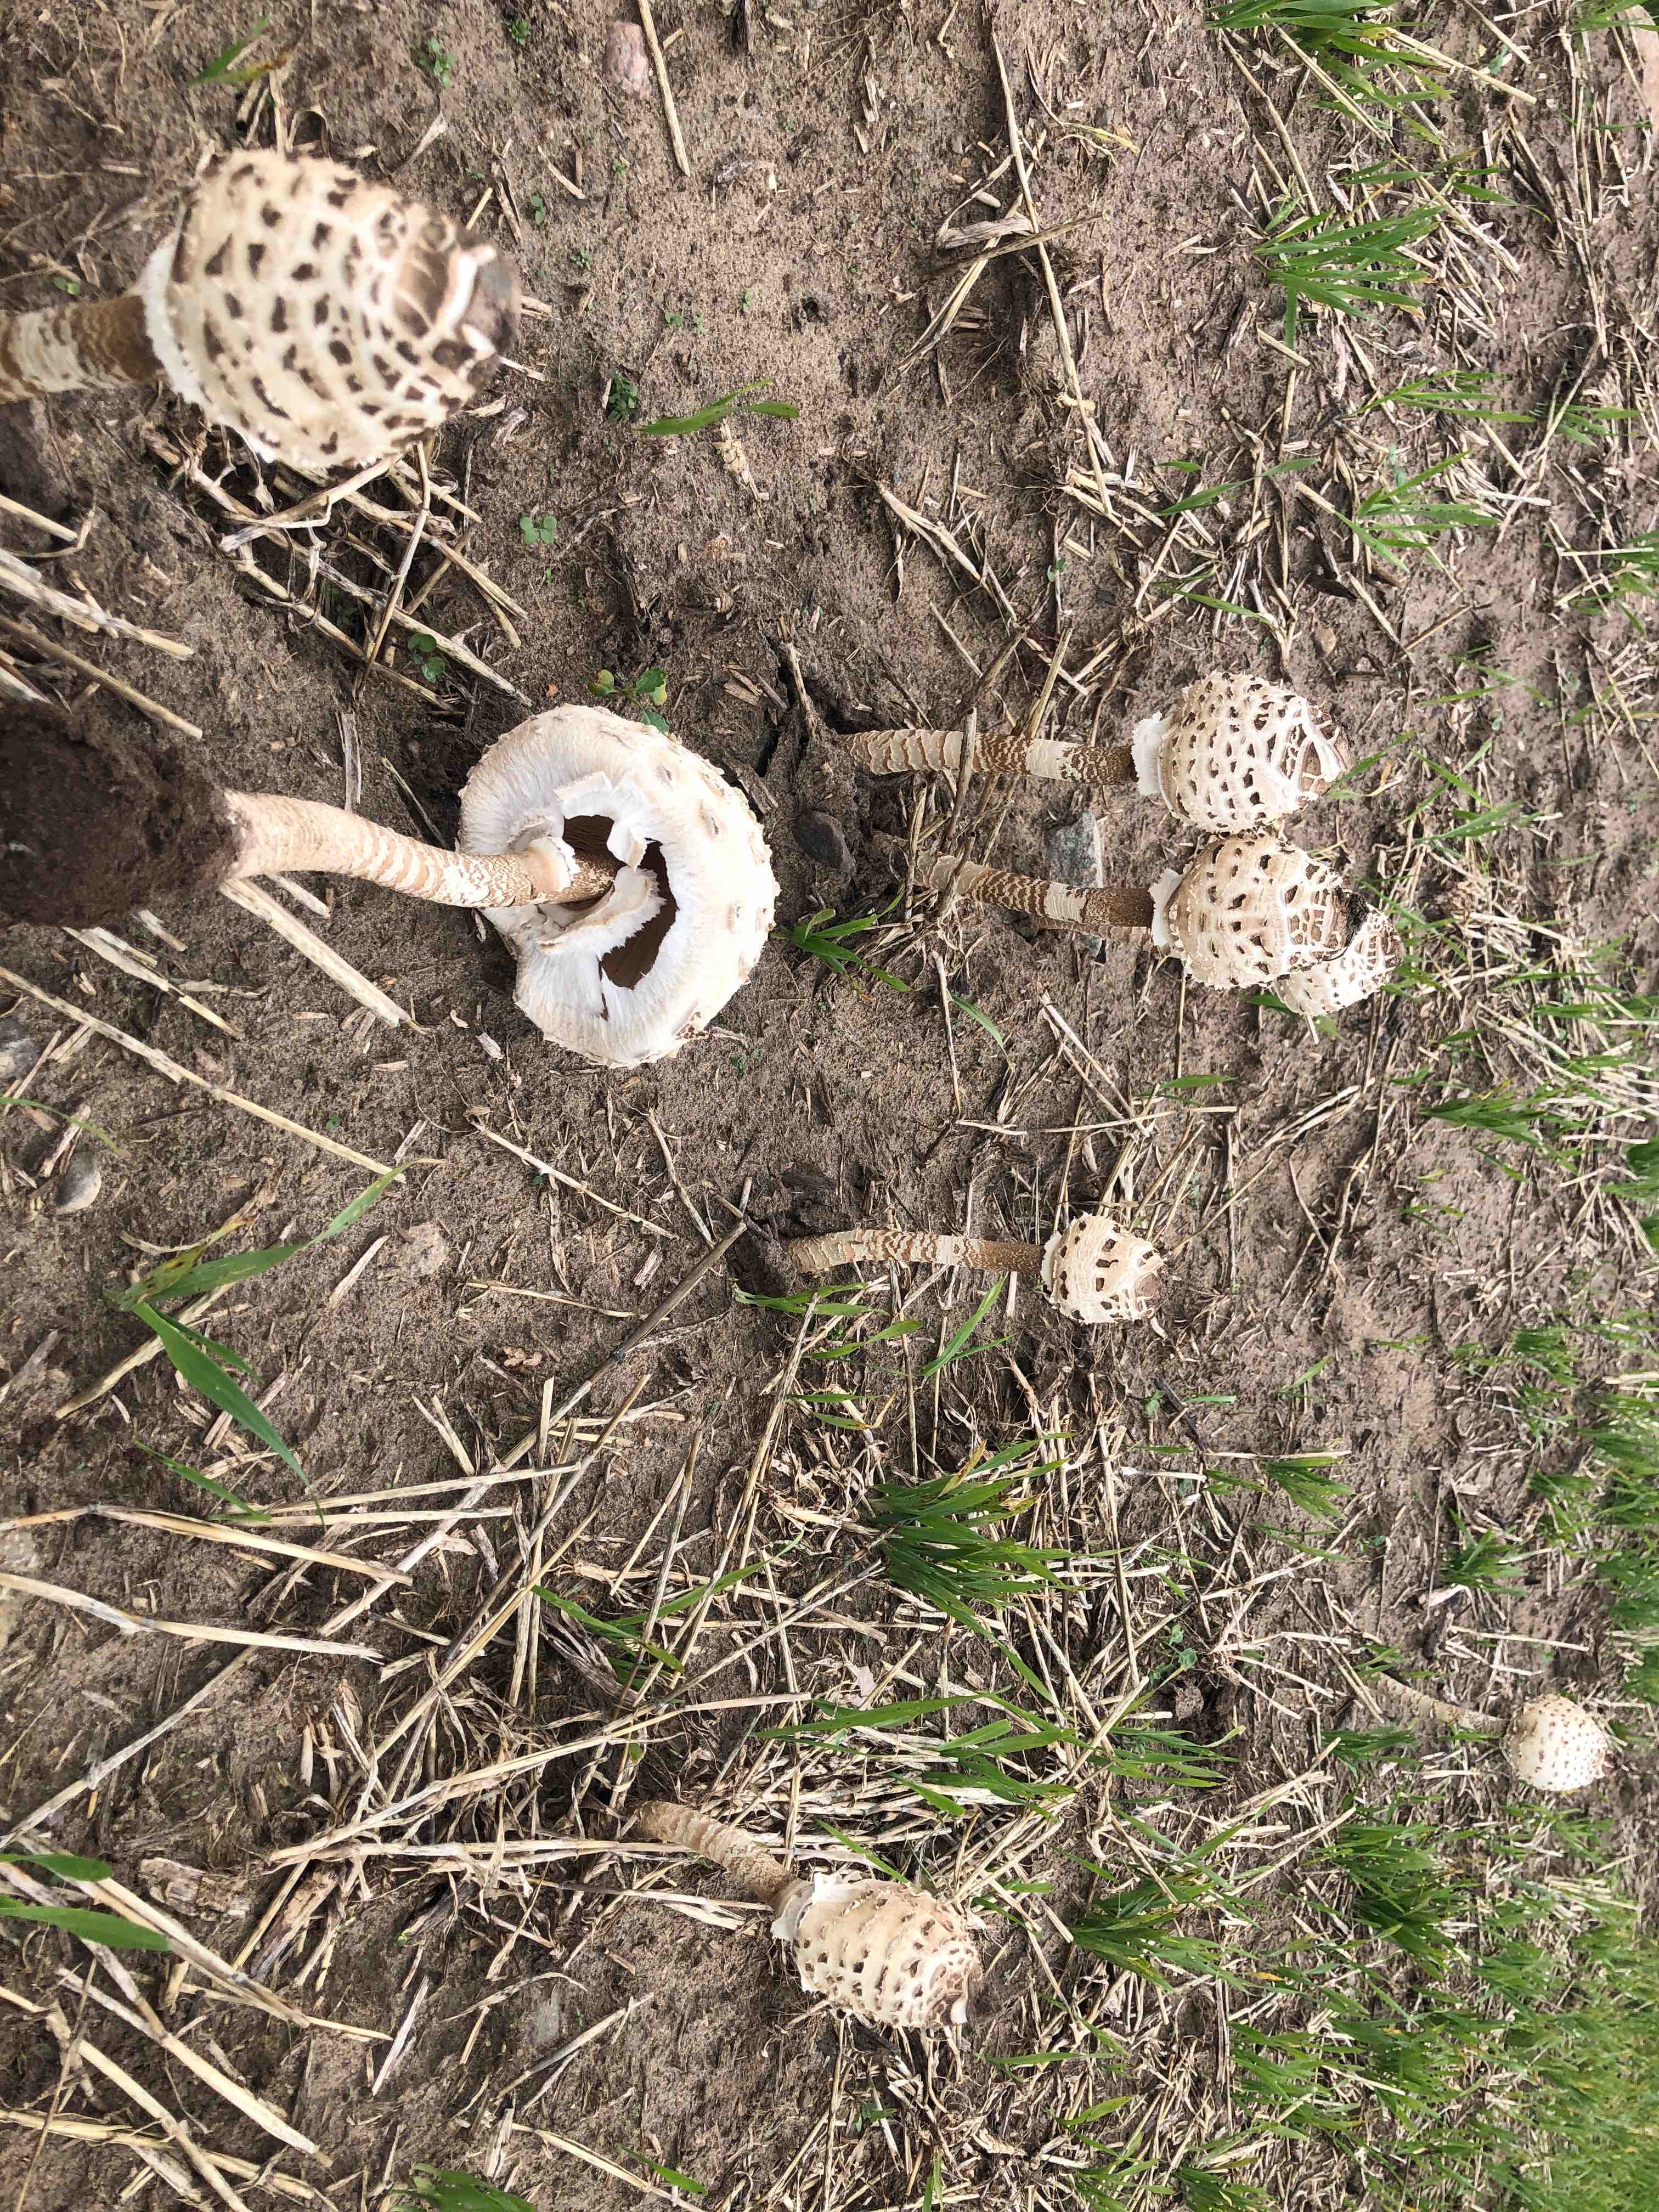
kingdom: Fungi
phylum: Basidiomycota
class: Agaricomycetes
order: Agaricales
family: Agaricaceae
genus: Macrolepiota
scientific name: Macrolepiota procera
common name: stor kæmpeparasolhat
